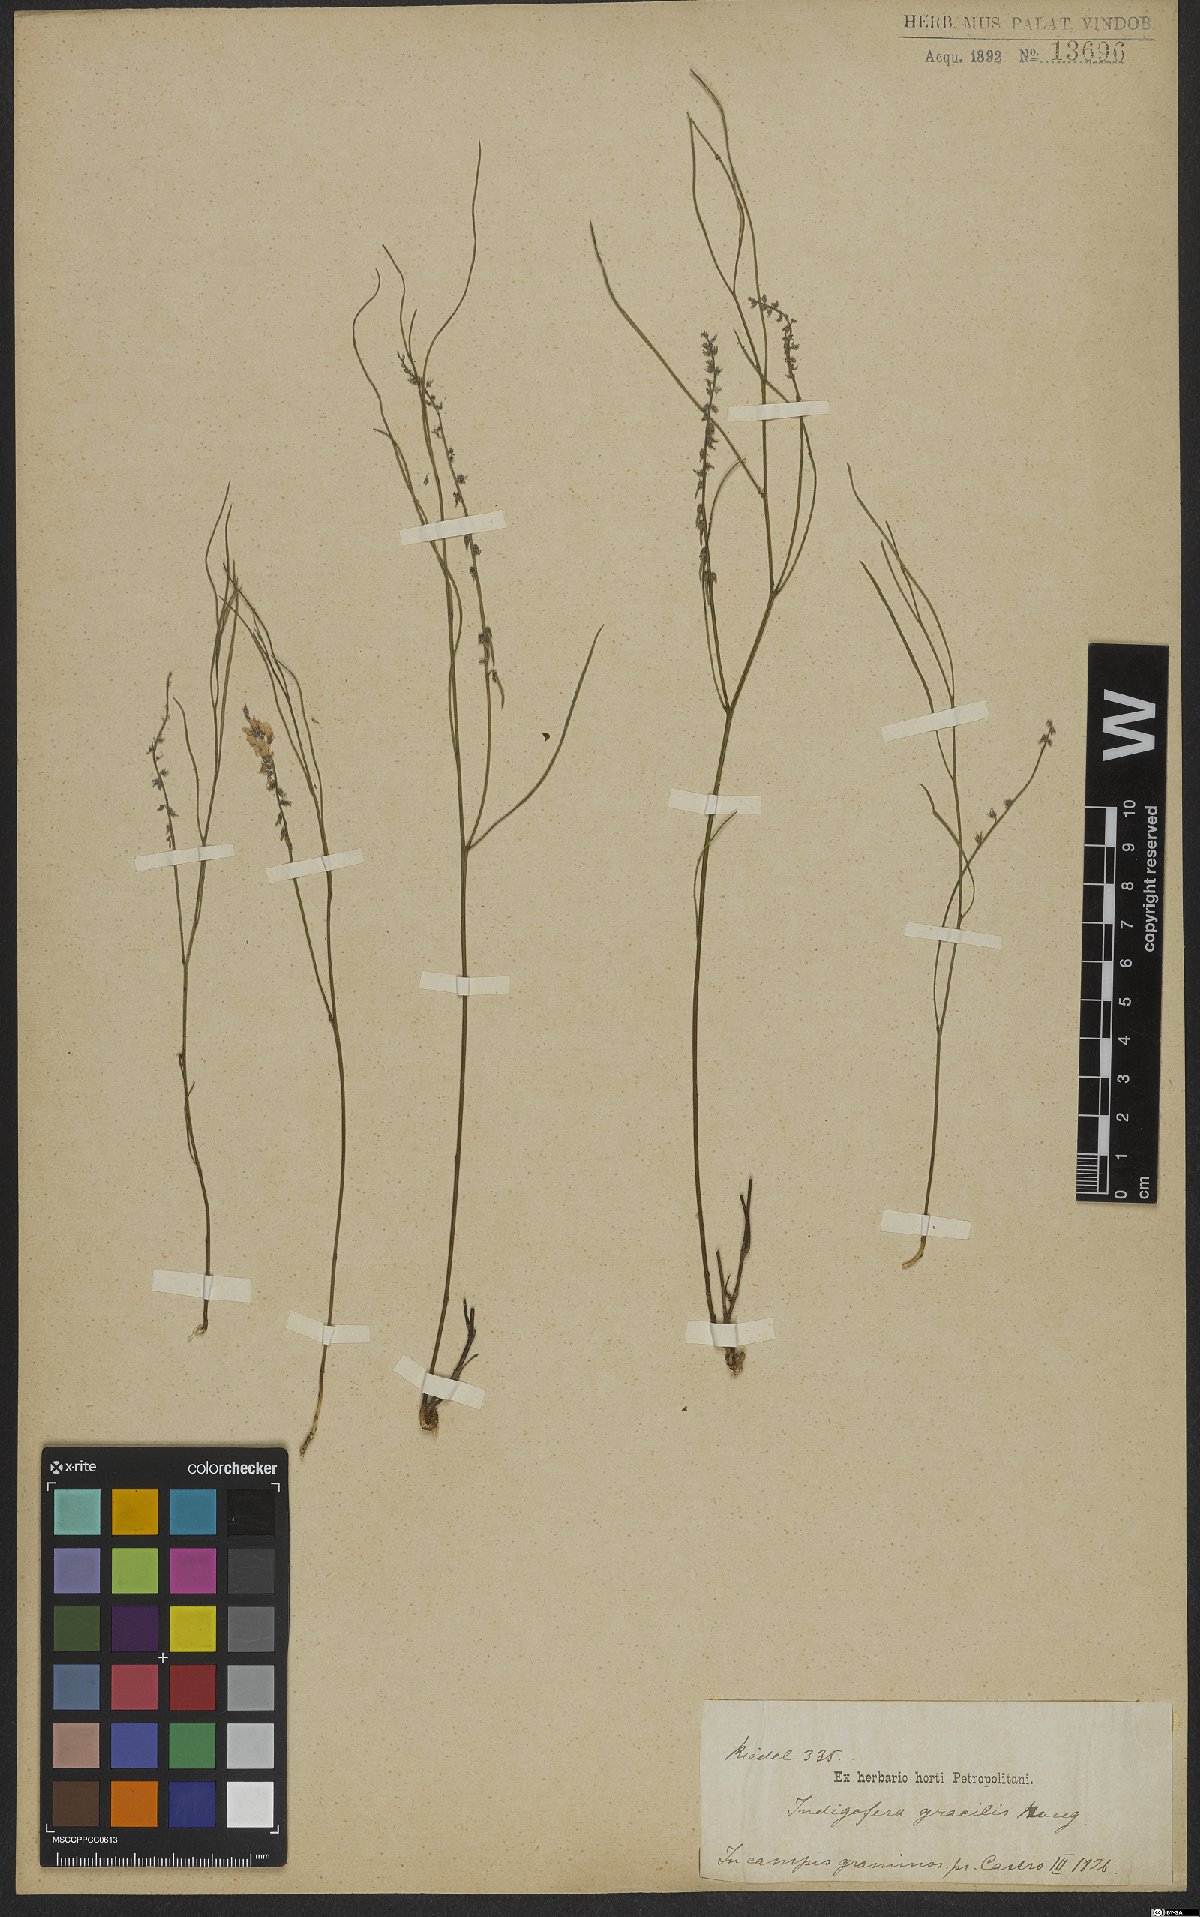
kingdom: Plantae
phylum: Tracheophyta
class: Magnoliopsida
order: Fabales
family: Fabaceae
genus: Indigofera
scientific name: Indigofera bongardiana
